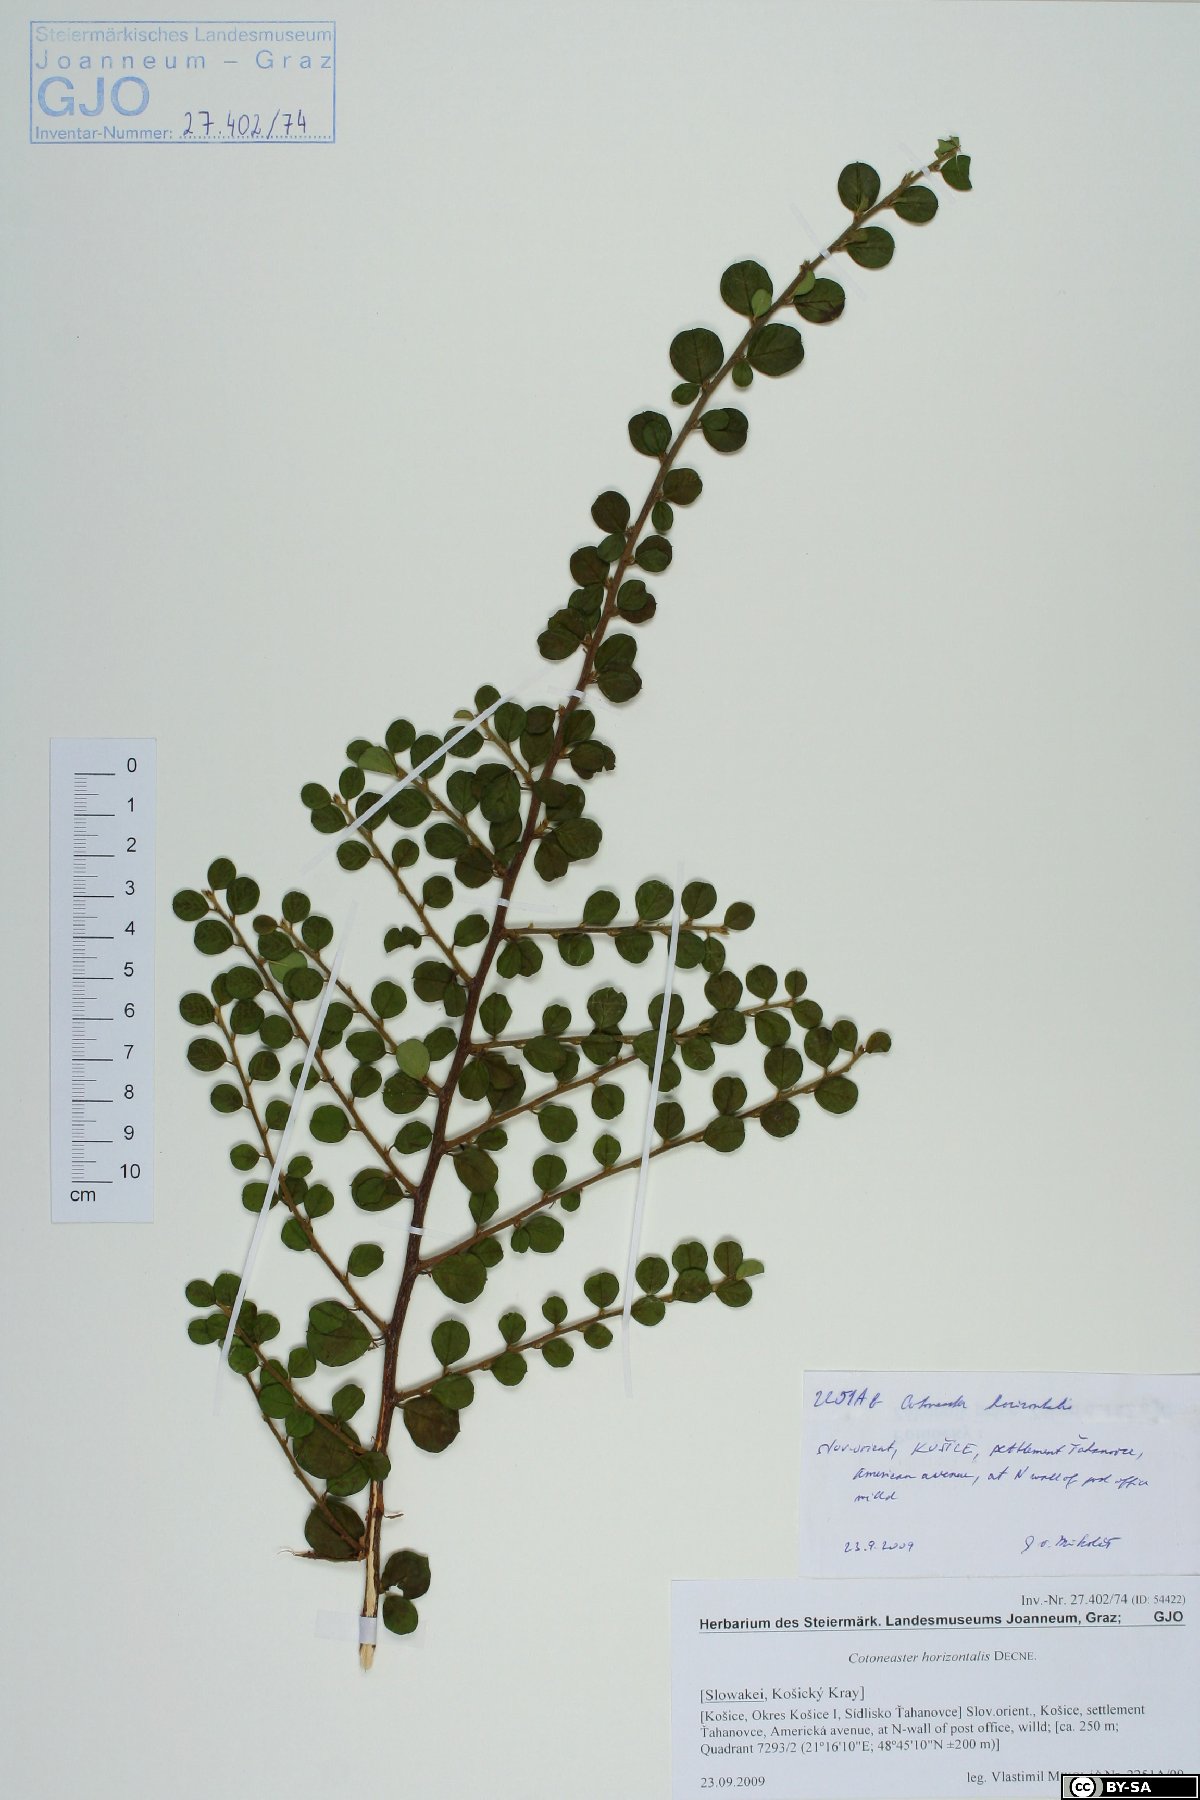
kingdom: Plantae
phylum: Tracheophyta
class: Magnoliopsida
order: Rosales
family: Rosaceae
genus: Cotoneaster
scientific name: Cotoneaster horizontalis
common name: Wall cotoneaster
